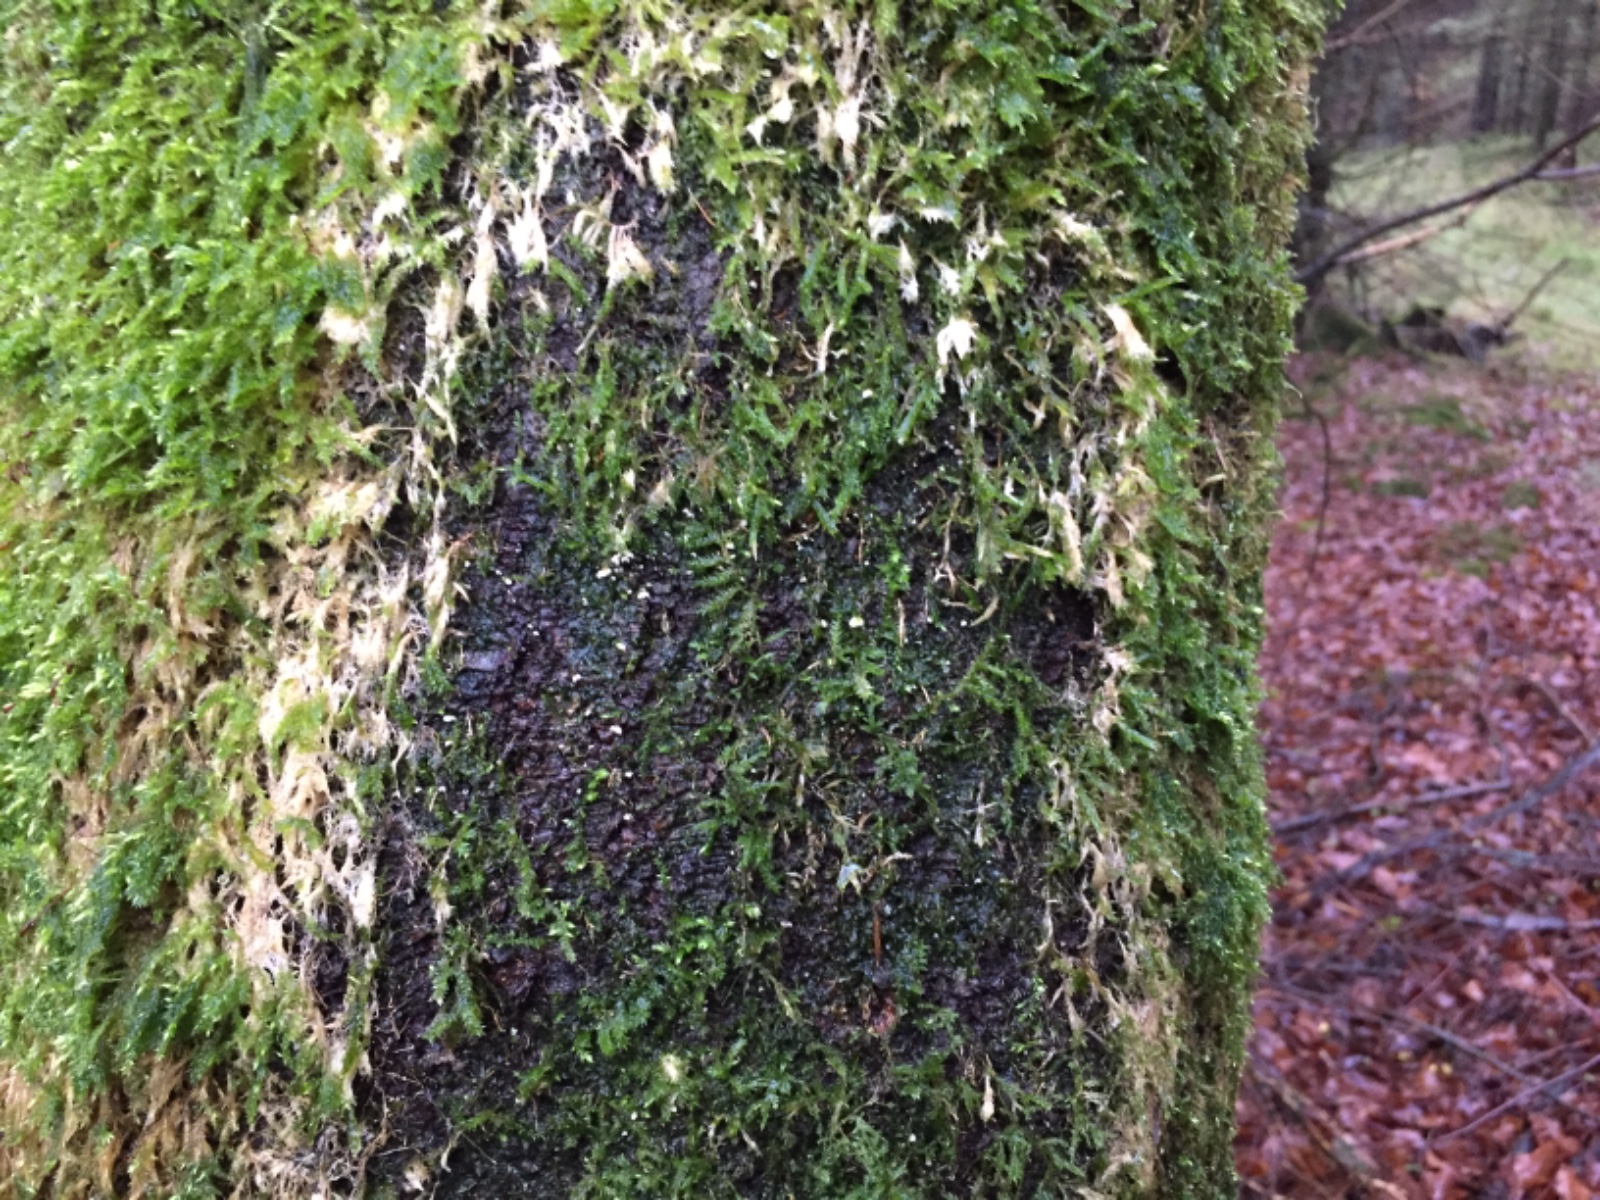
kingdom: Fungi
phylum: Basidiomycota
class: Agaricomycetes
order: Agaricales
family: Chromocyphellaceae
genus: Chromocyphella
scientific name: Chromocyphella muscicola
